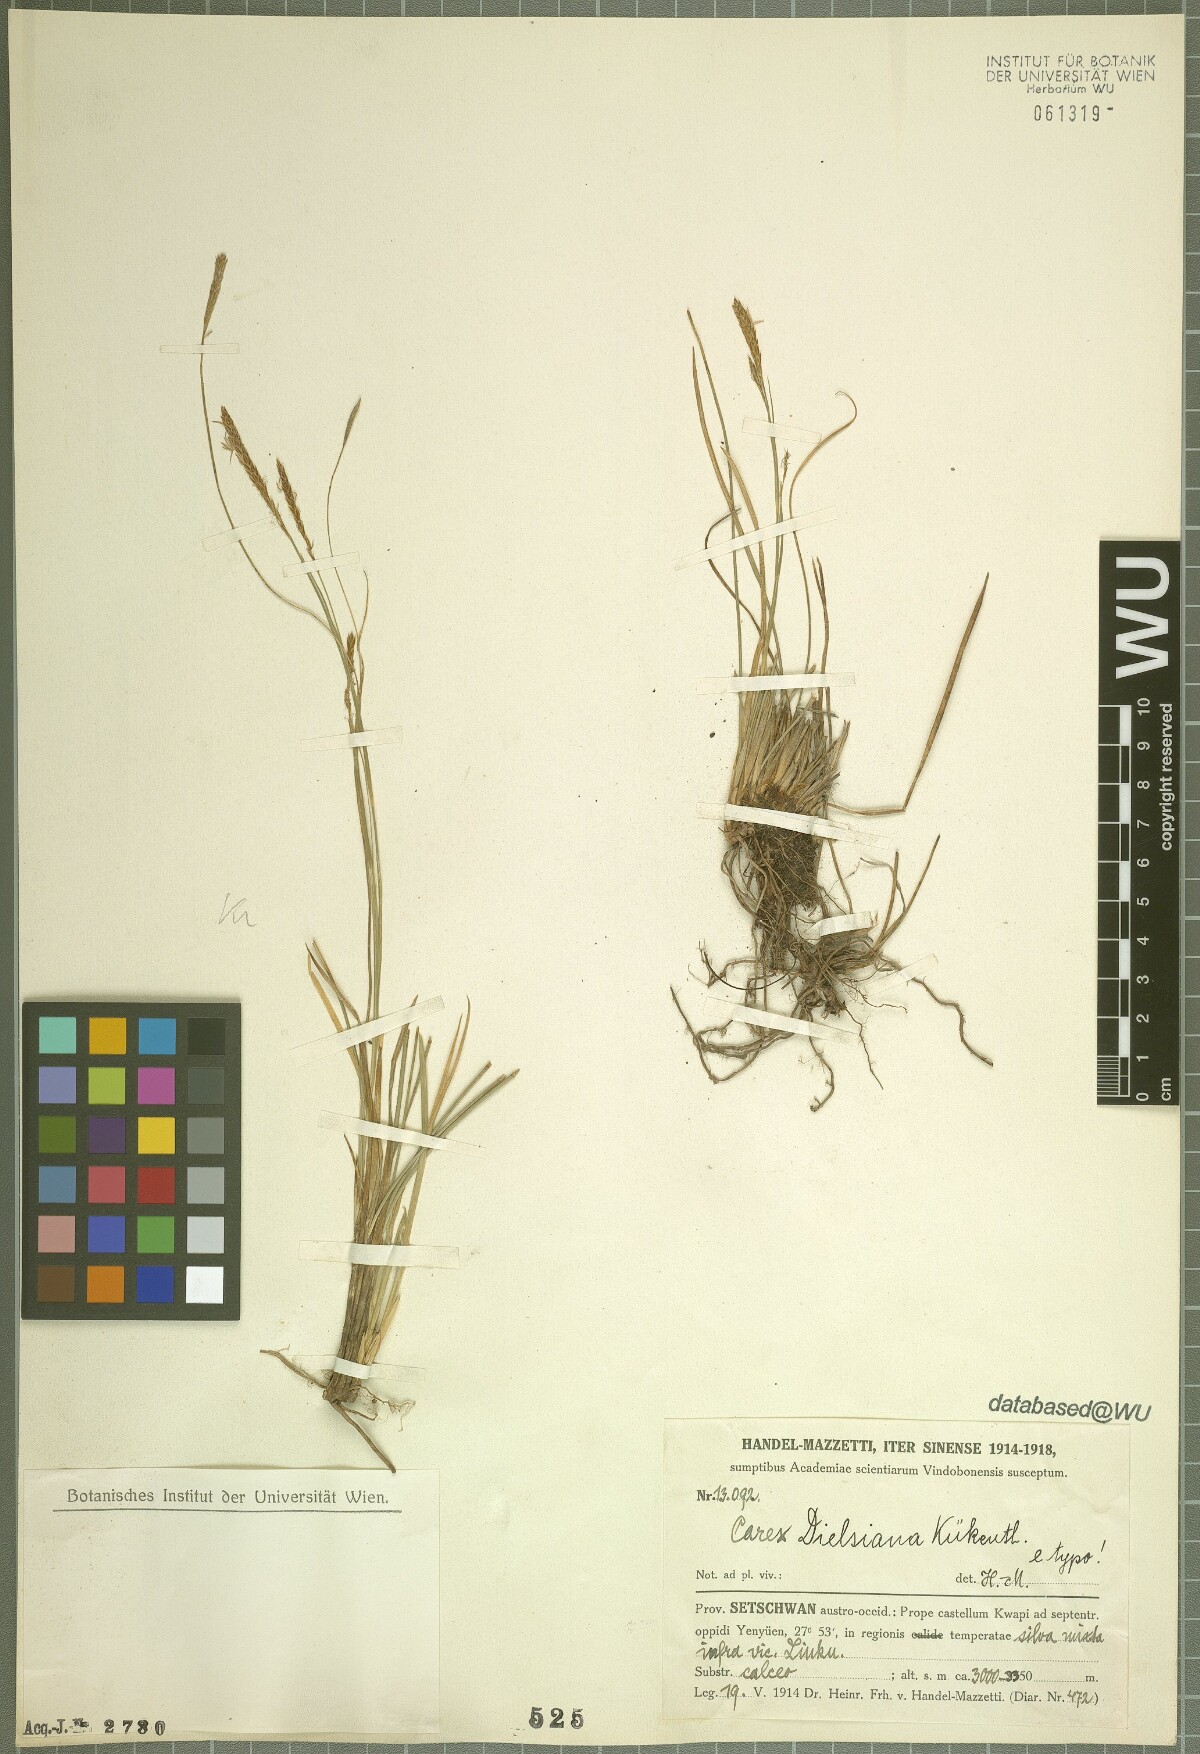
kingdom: Plantae
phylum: Tracheophyta
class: Liliopsida
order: Poales
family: Cyperaceae
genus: Carex
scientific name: Carex dielsiana
